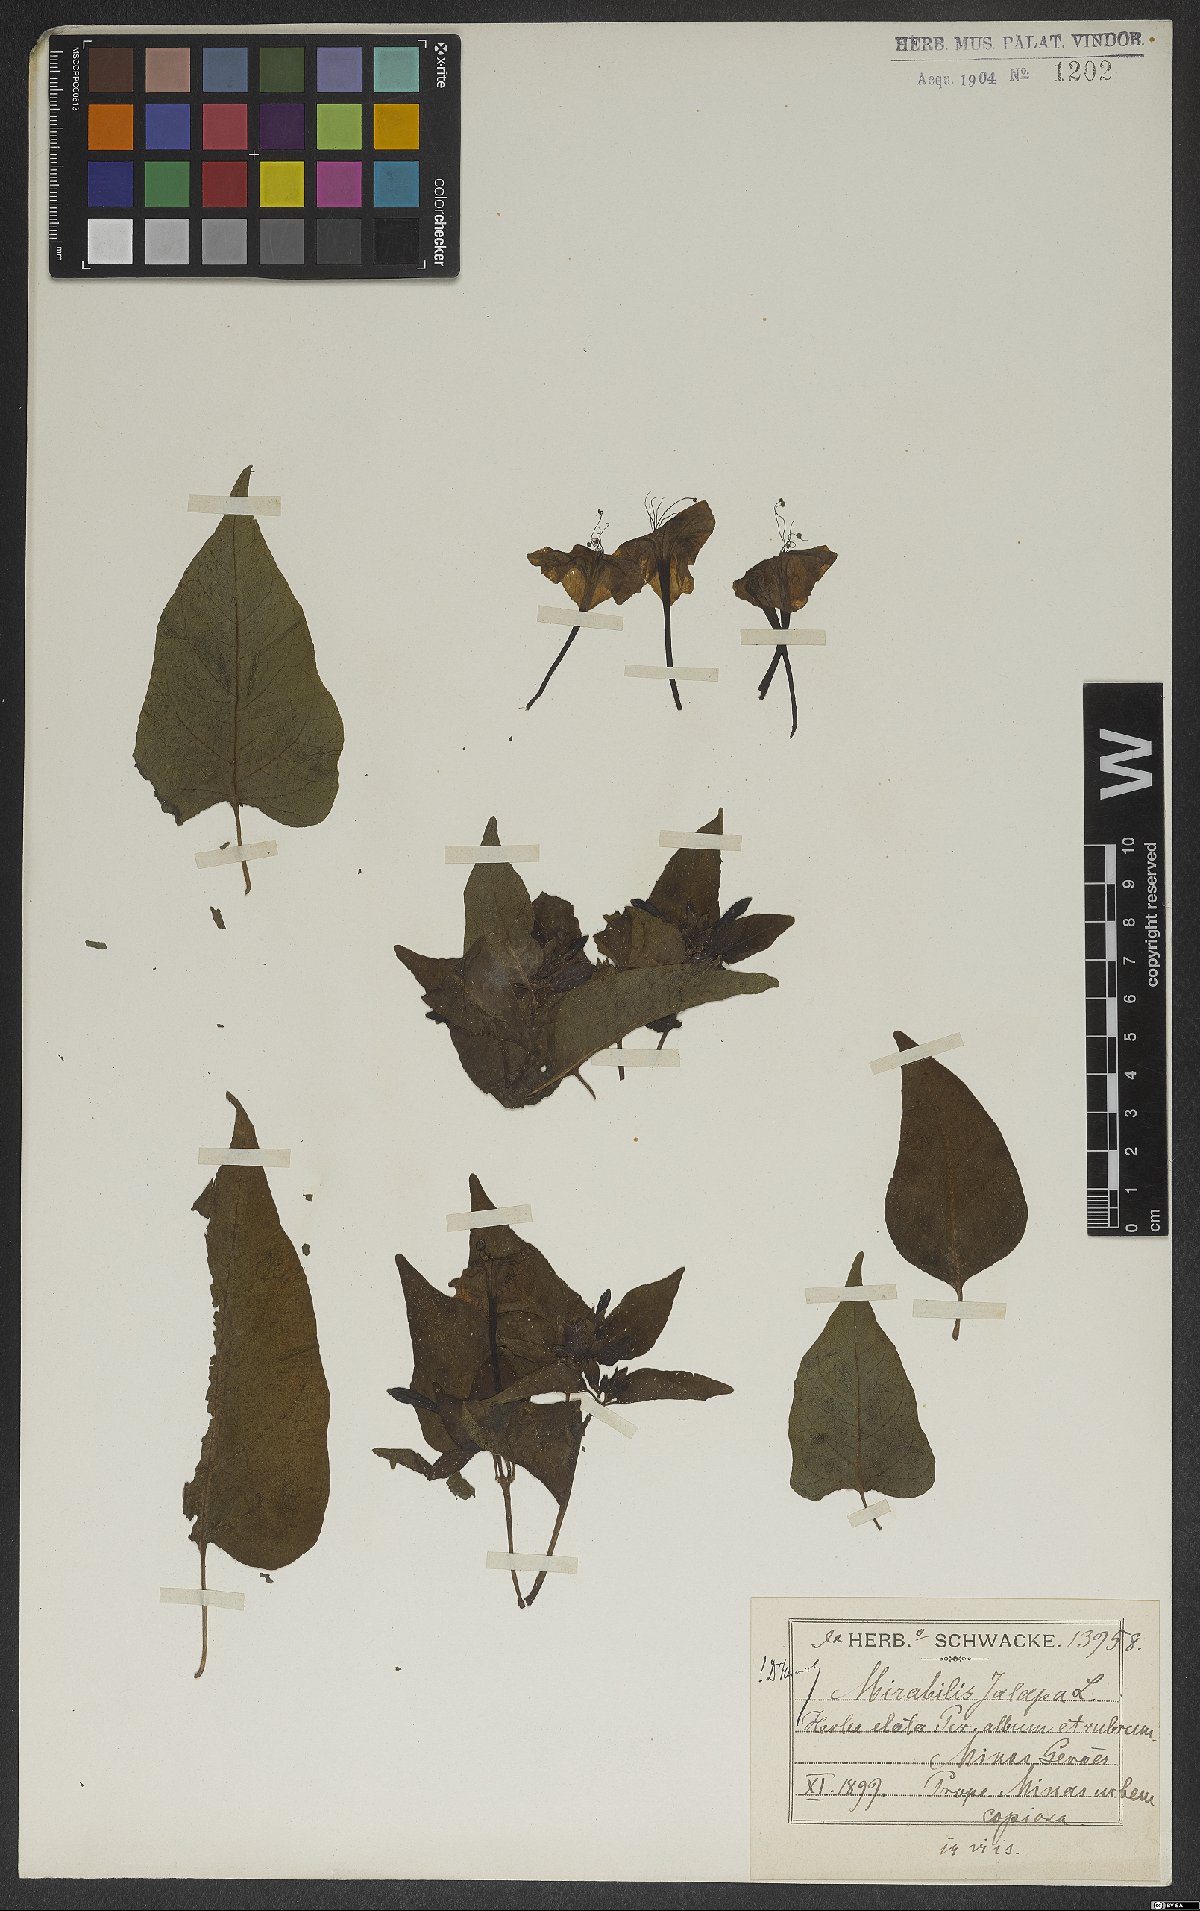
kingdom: Plantae
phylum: Tracheophyta
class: Magnoliopsida
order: Caryophyllales
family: Nyctaginaceae
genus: Mirabilis
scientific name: Mirabilis jalapa
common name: Marvel-of-peru
